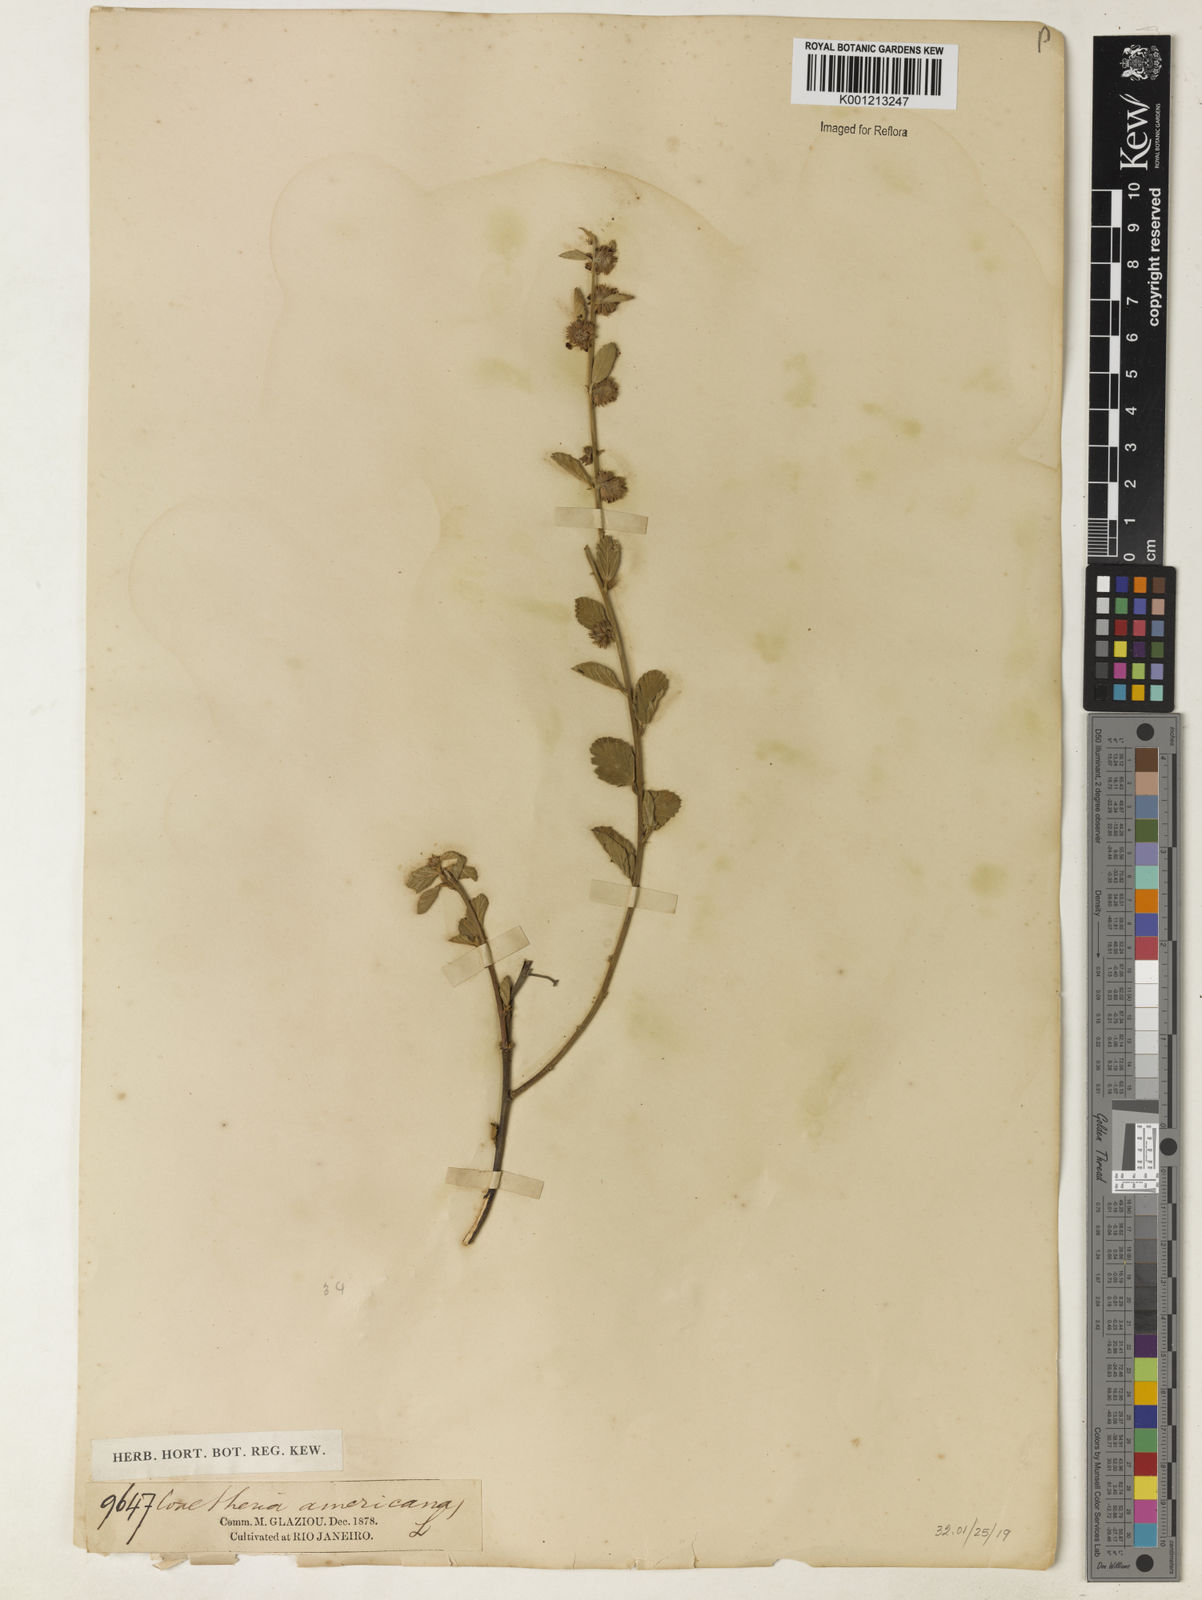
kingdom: Plantae
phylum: Tracheophyta
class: Magnoliopsida
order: Malvales
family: Malvaceae
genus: Waltheria
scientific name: Waltheria indica
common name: Leather-coat
